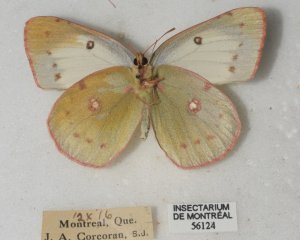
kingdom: Animalia
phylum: Arthropoda
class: Insecta
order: Lepidoptera
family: Pieridae
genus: Colias
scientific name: Colias philodice
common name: Clouded Sulphur
